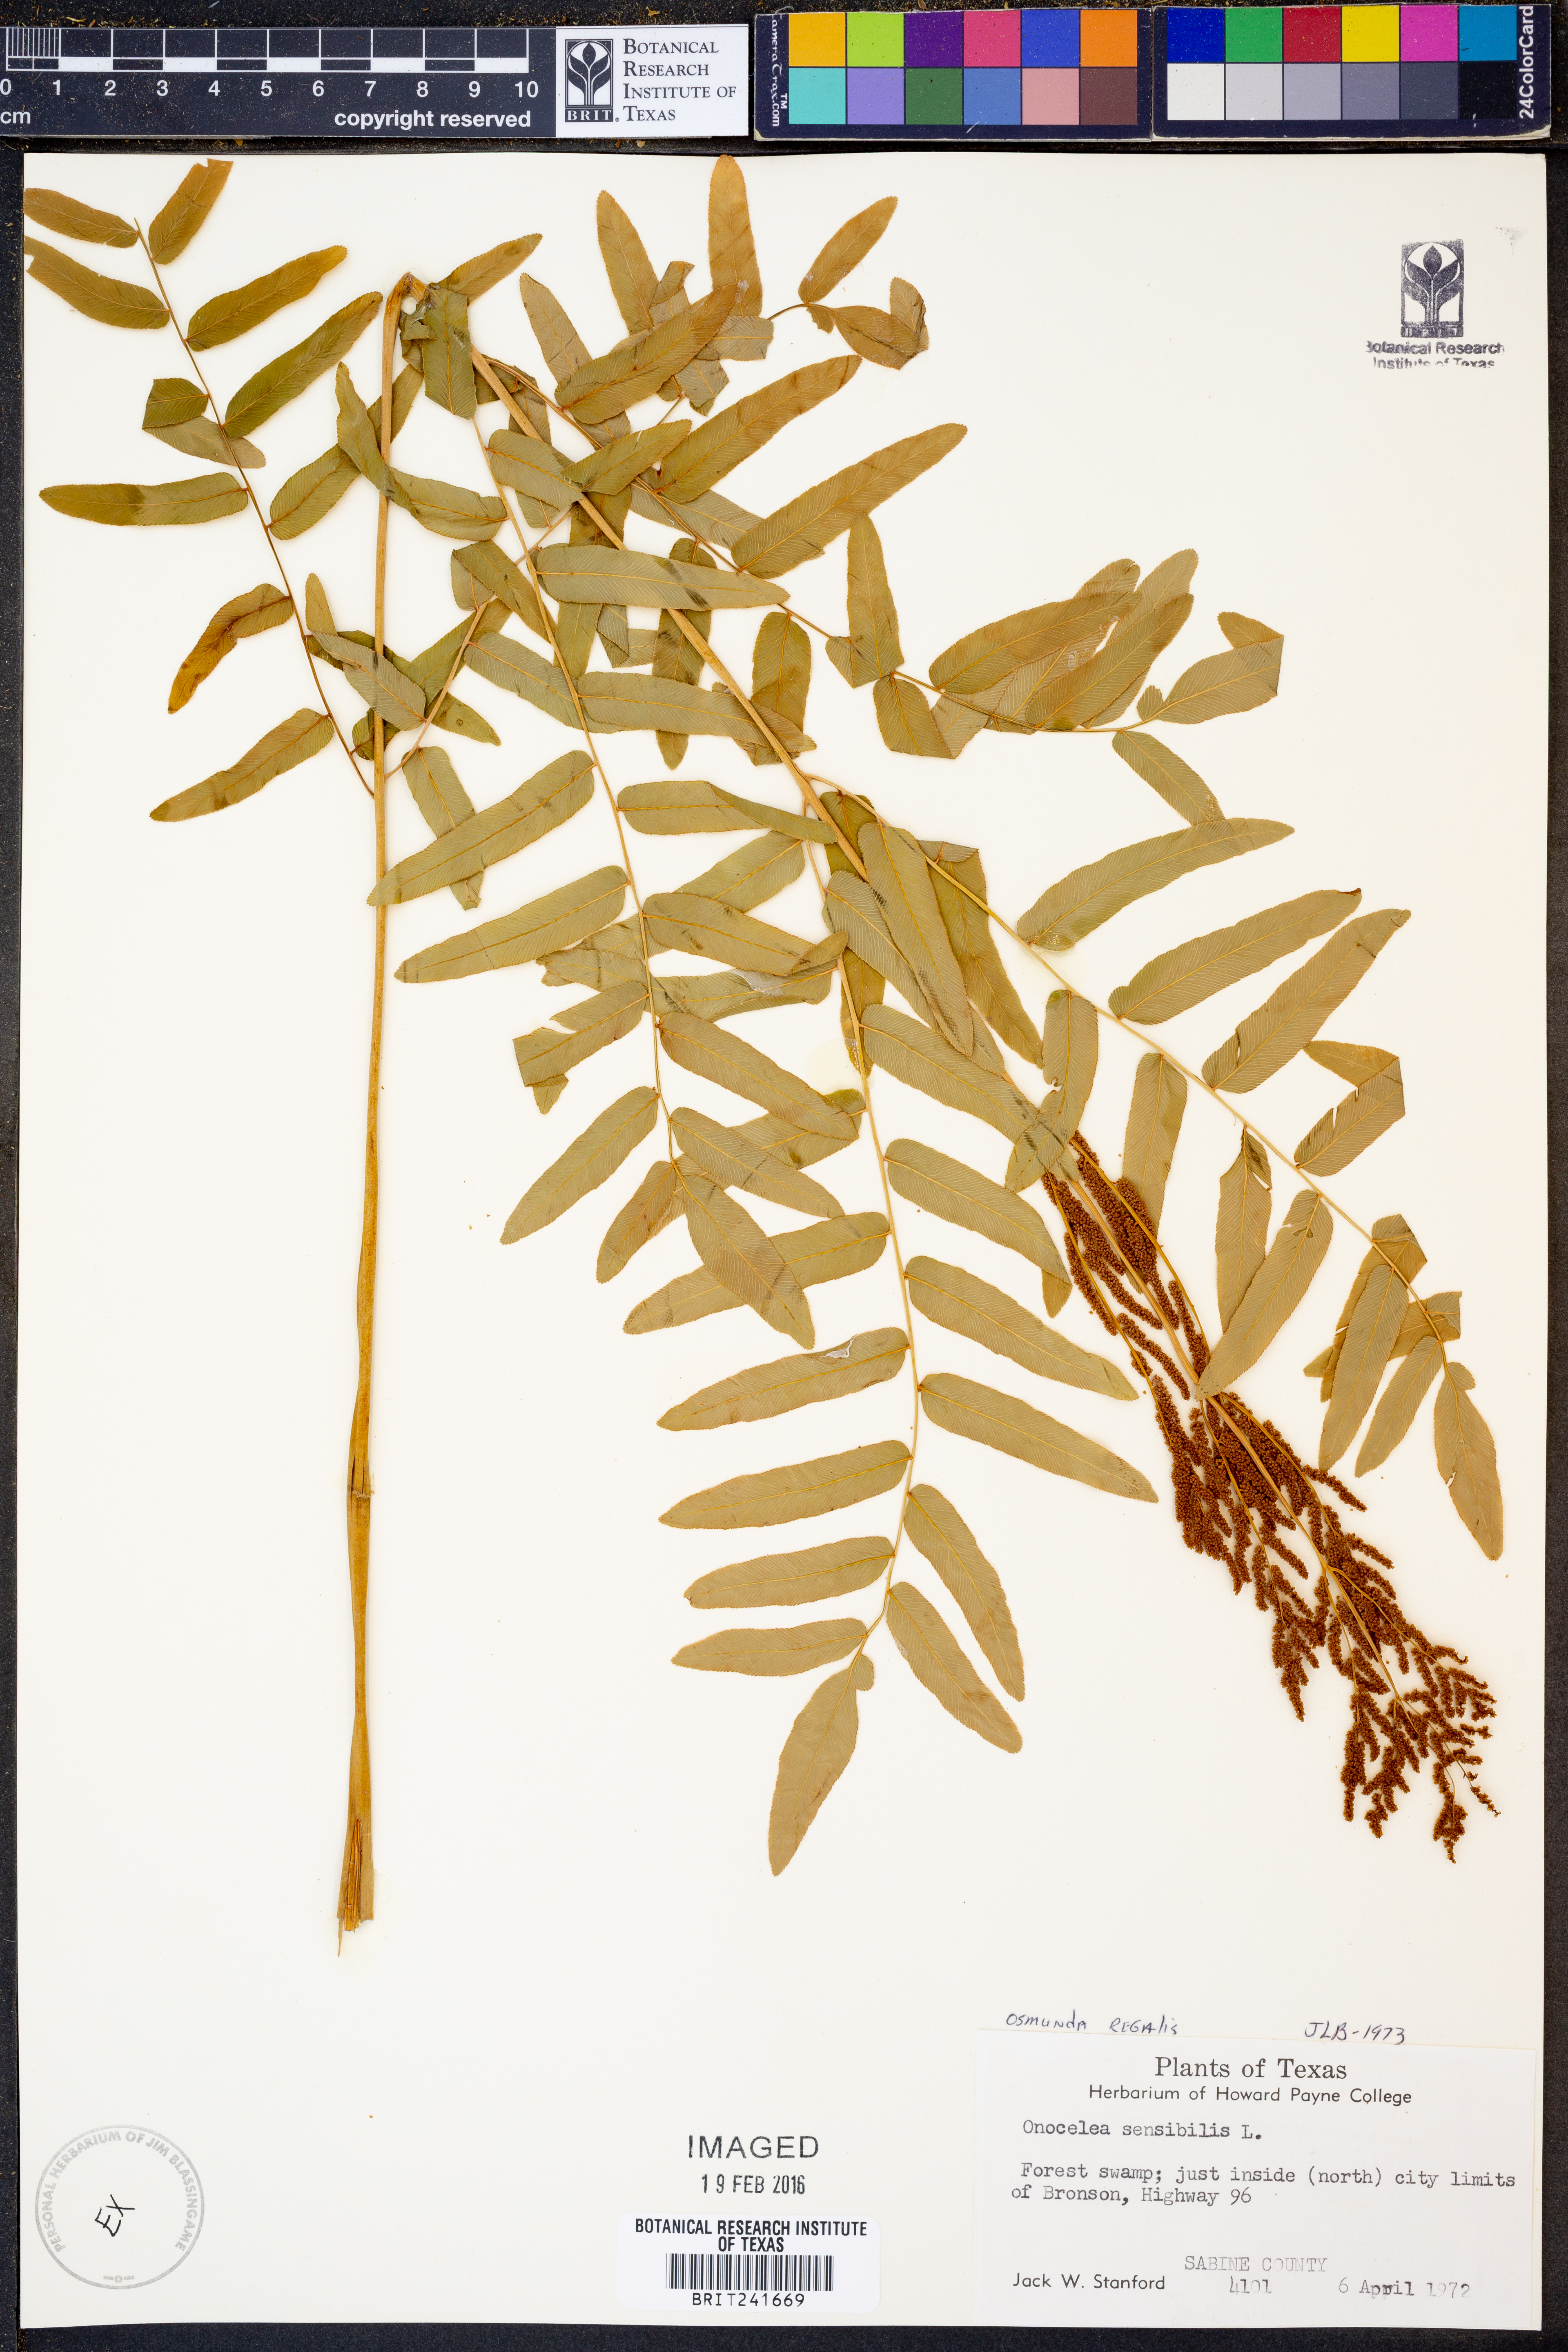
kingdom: Plantae
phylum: Tracheophyta
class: Polypodiopsida
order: Osmundales
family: Osmundaceae
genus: Osmunda
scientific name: Osmunda regalis
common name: Royal fern
